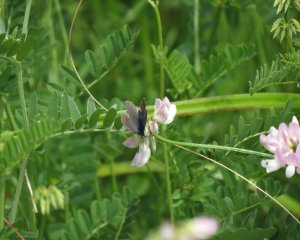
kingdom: Animalia
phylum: Arthropoda
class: Insecta
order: Lepidoptera
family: Lycaenidae
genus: Glaucopsyche
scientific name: Glaucopsyche lygdamus
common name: Silvery Blue
